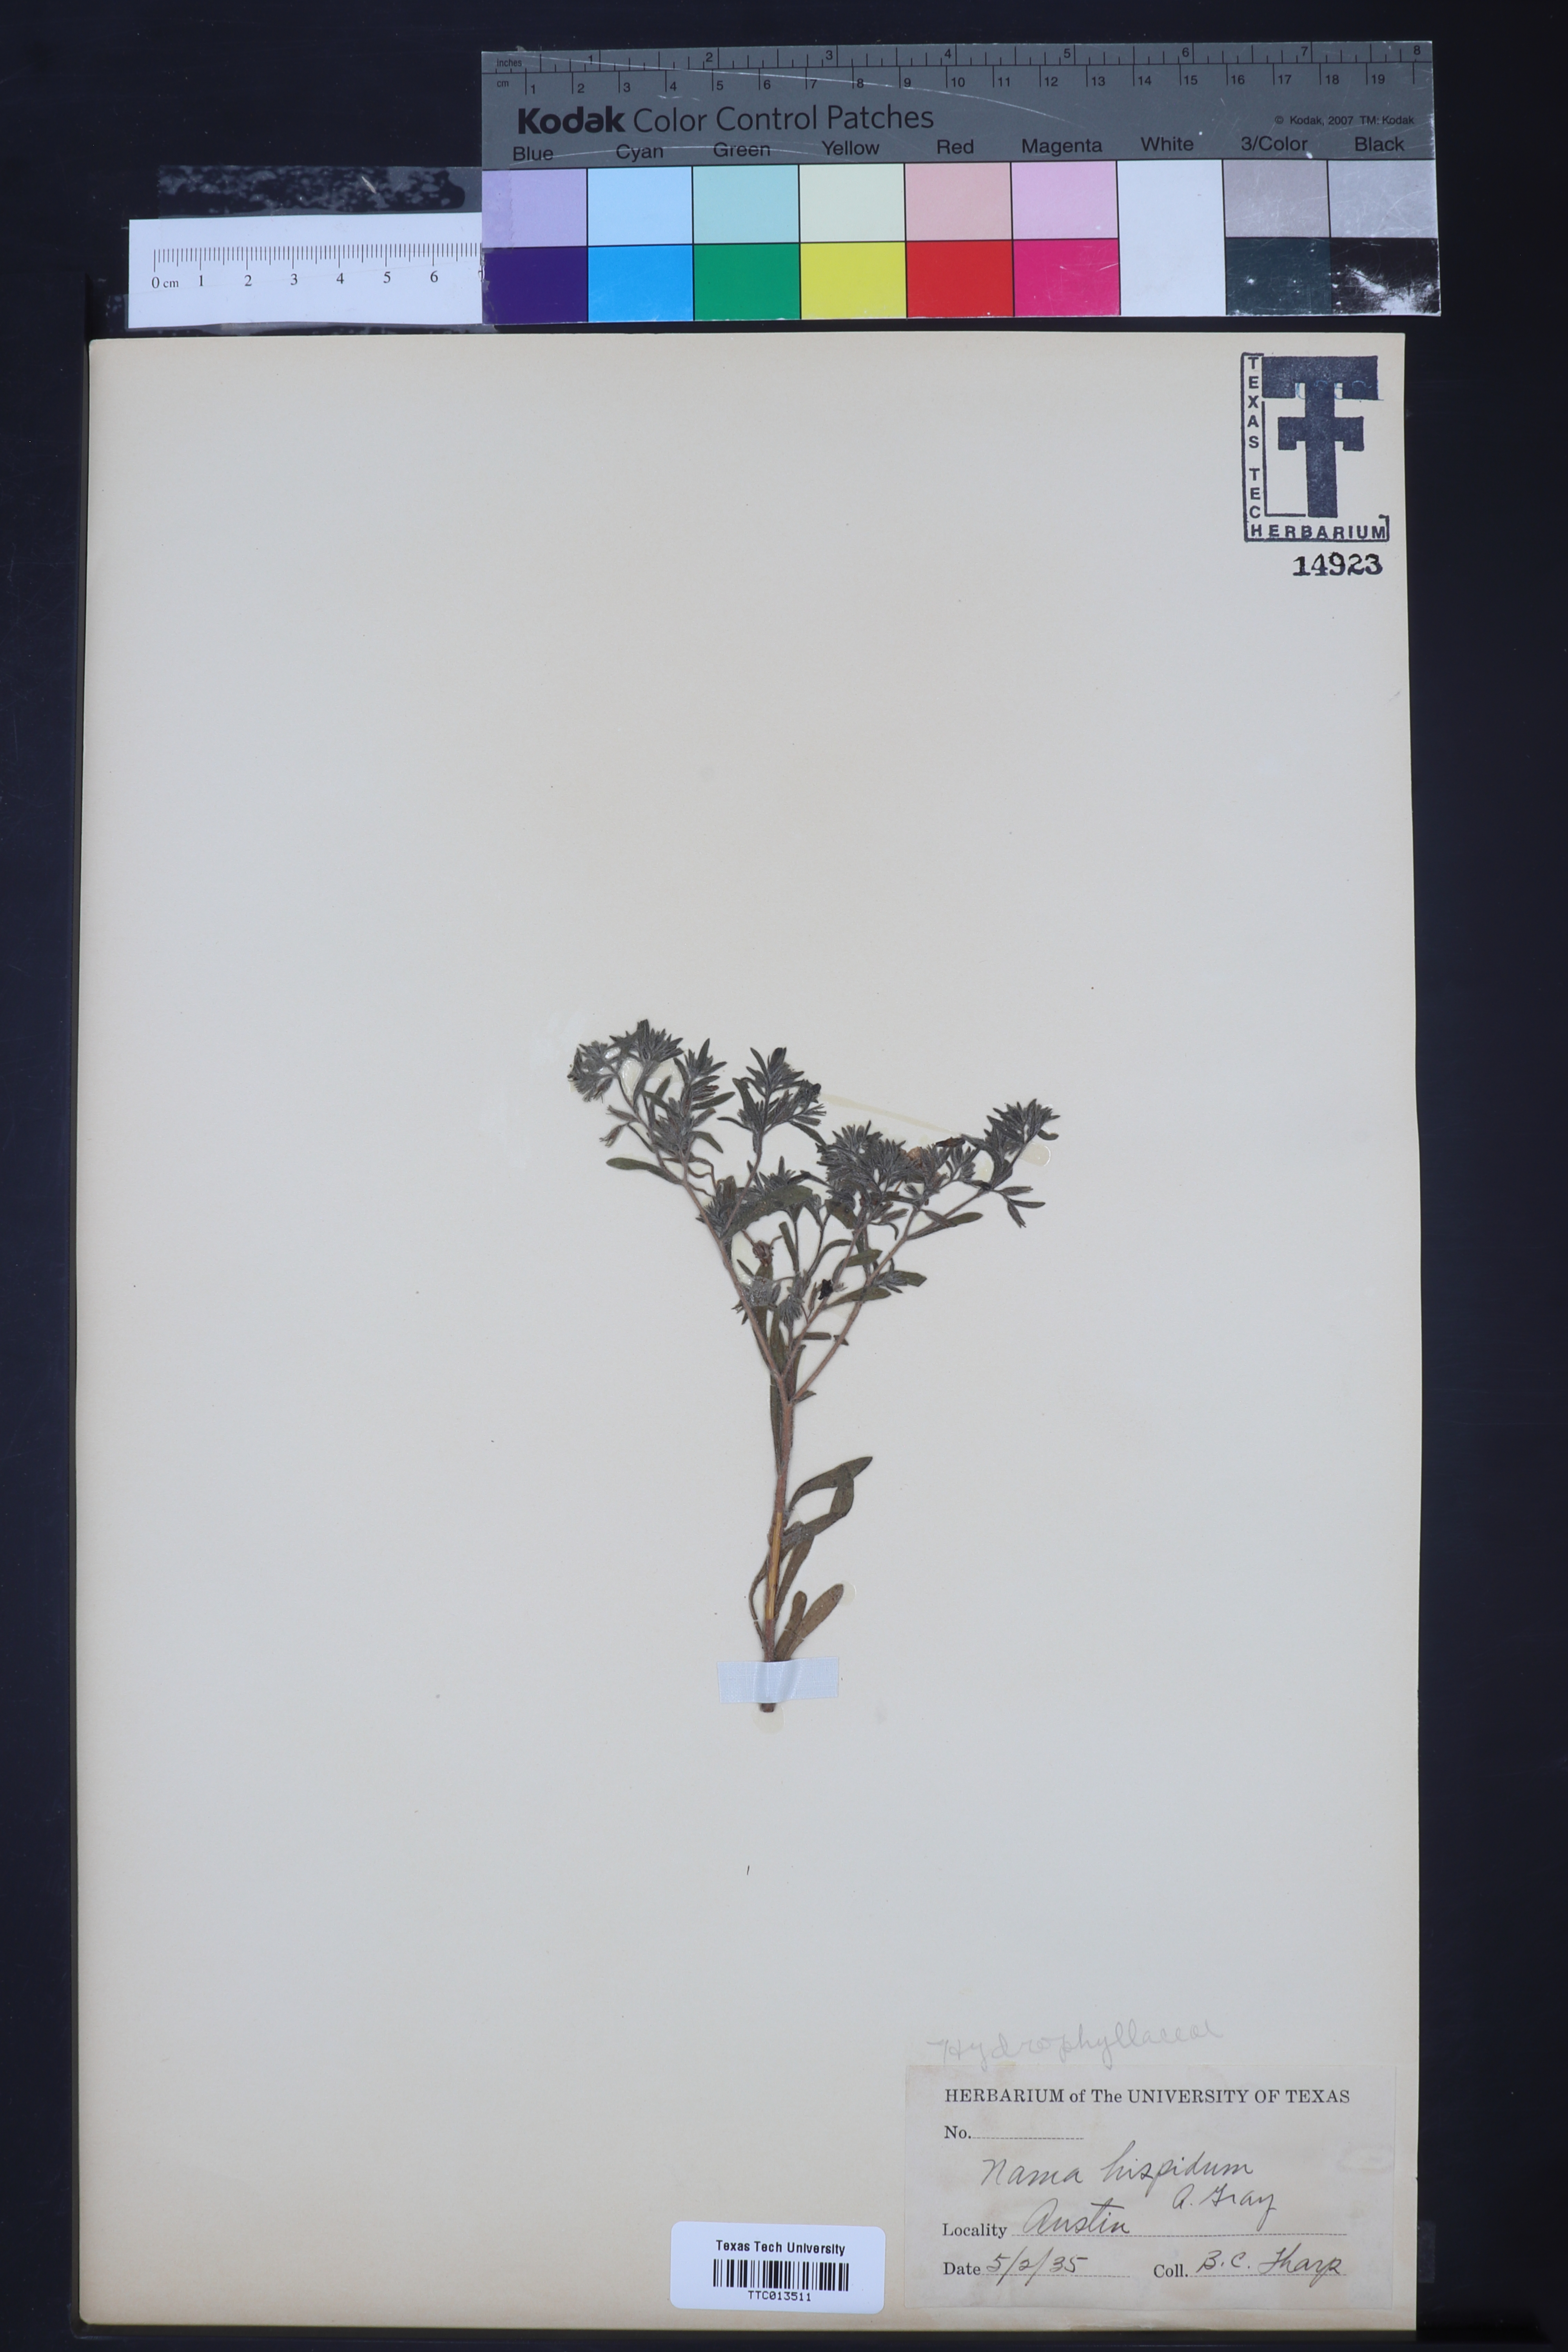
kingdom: Plantae
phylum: Tracheophyta
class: Magnoliopsida
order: Boraginales
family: Namaceae
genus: Nama
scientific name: Nama hispida
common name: Bristly nama
